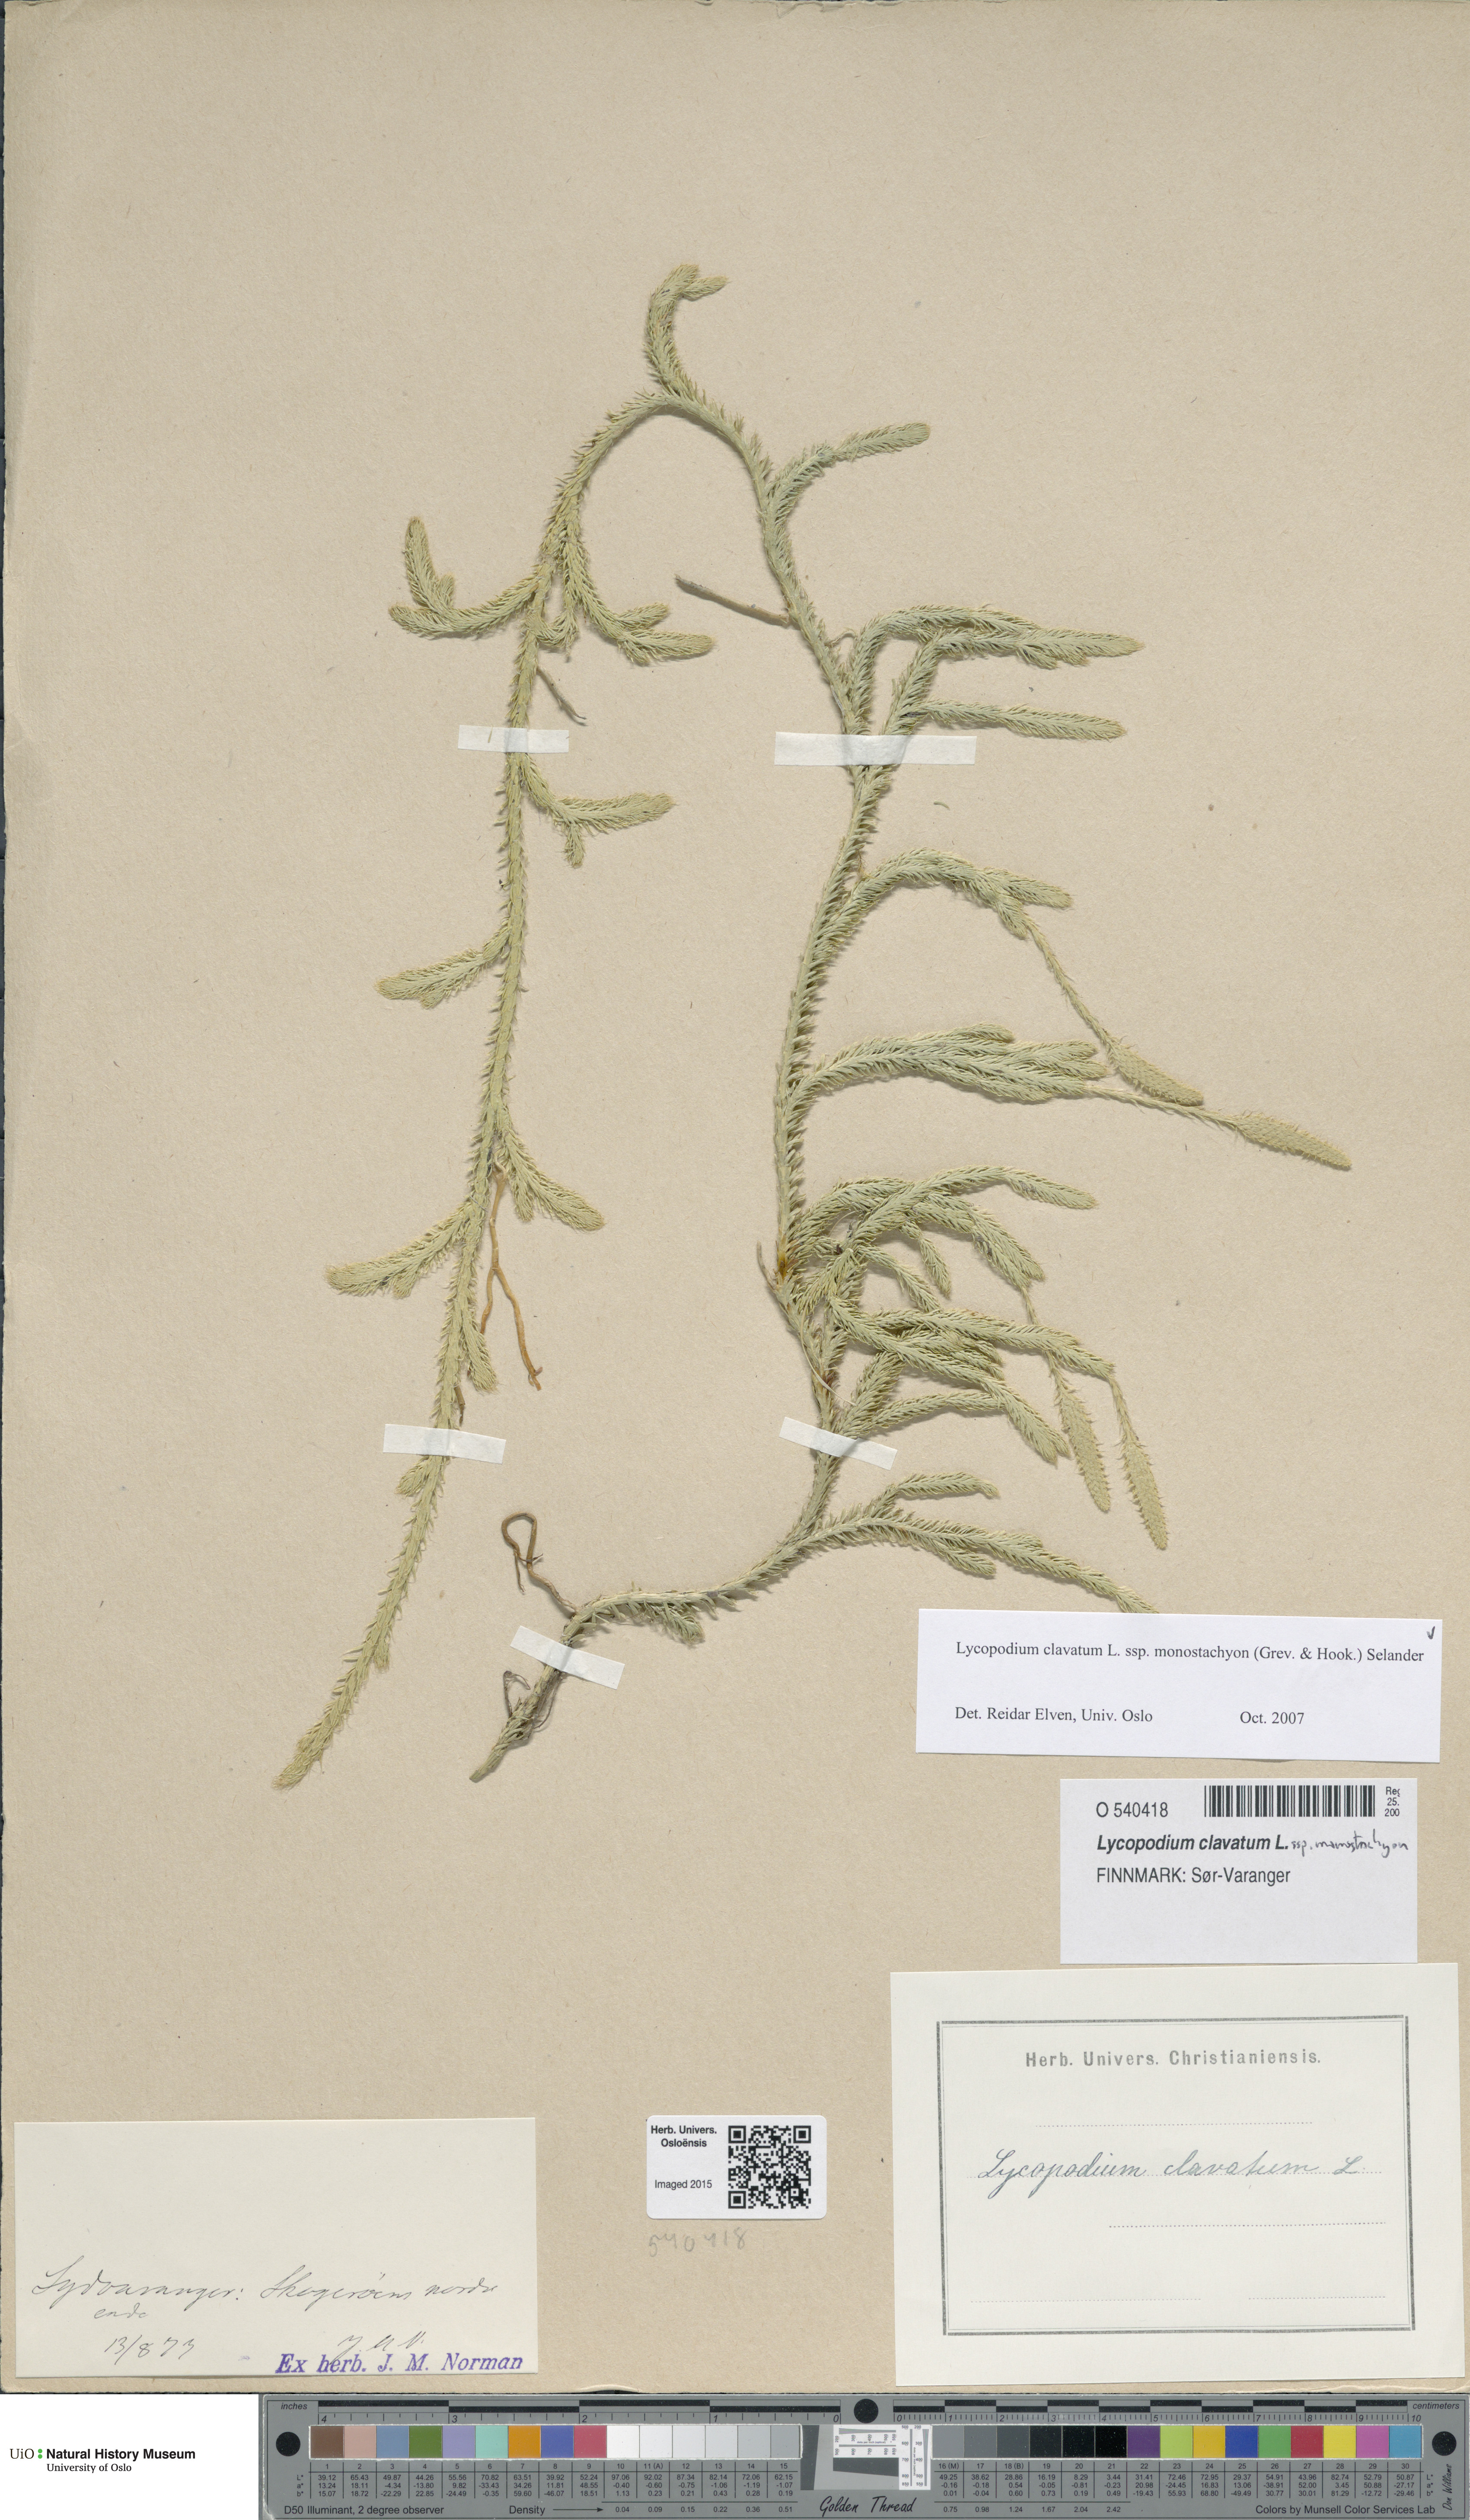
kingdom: Plantae
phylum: Tracheophyta
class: Lycopodiopsida
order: Lycopodiales
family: Lycopodiaceae
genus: Lycopodium
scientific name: Lycopodium lagopus
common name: One-cone clubmoss
